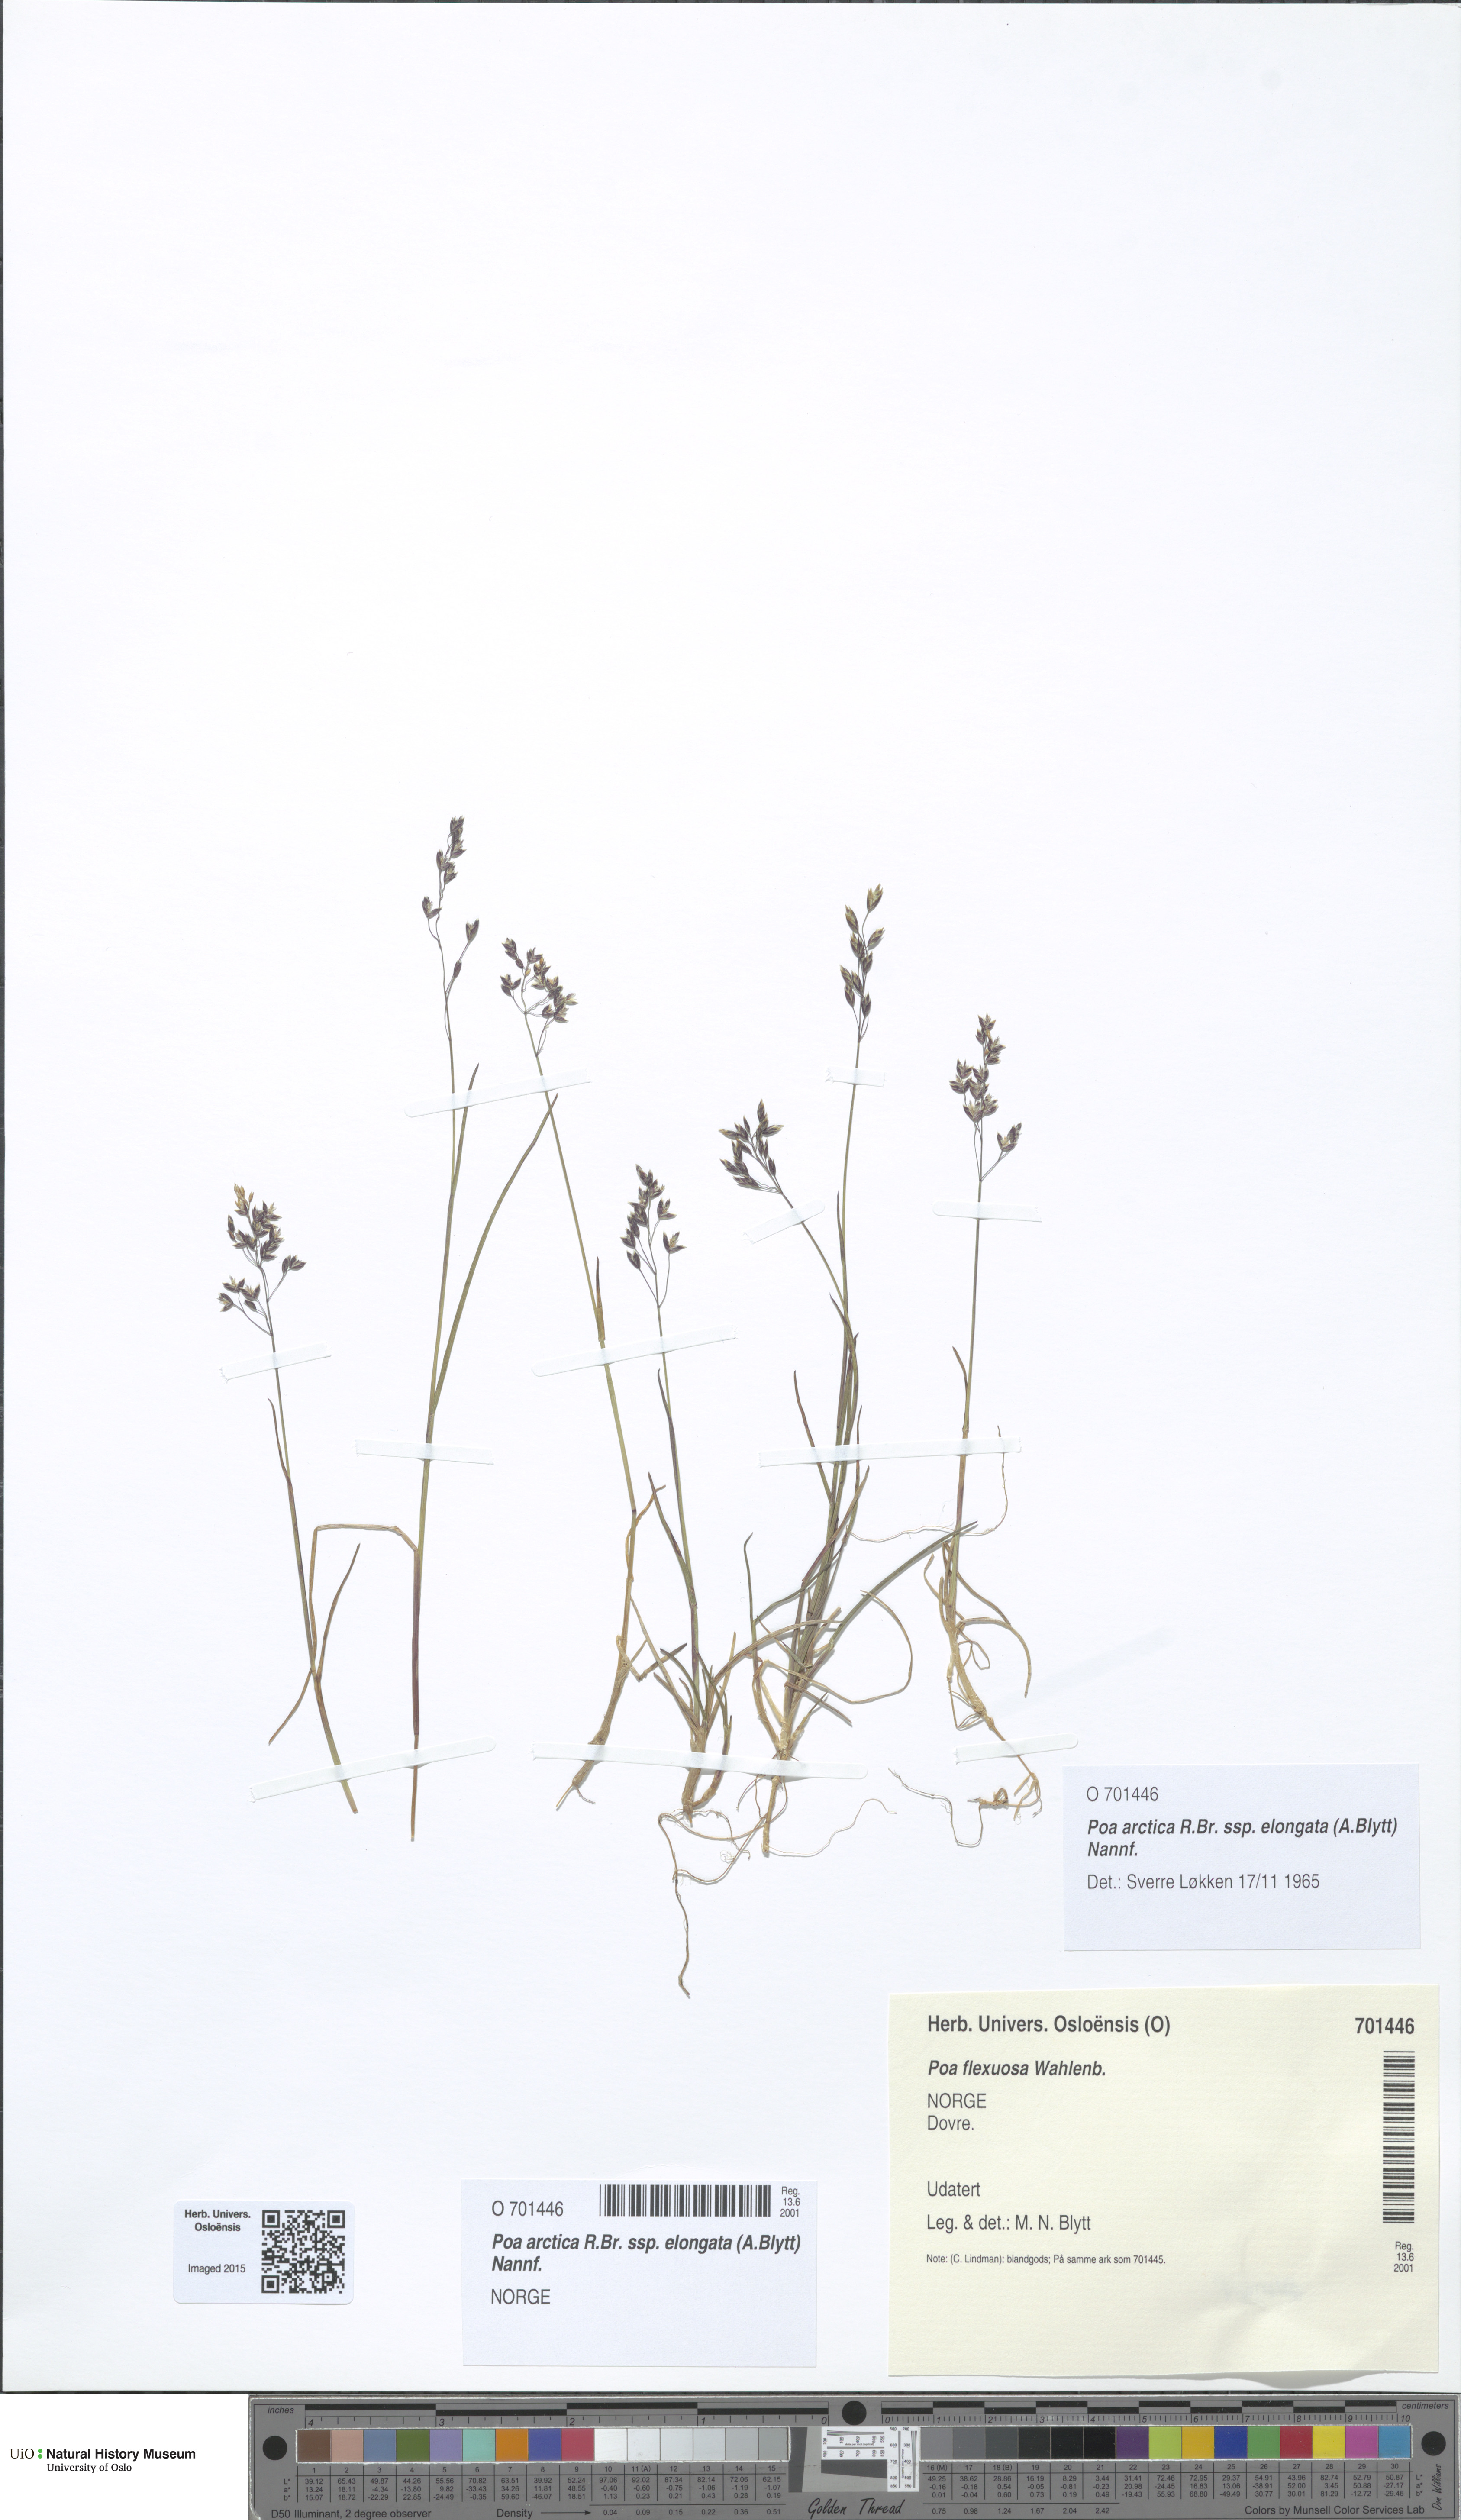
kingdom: Plantae
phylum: Tracheophyta
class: Liliopsida
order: Poales
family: Poaceae
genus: Poa
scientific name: Poa arctica
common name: Arctic bluegrass
